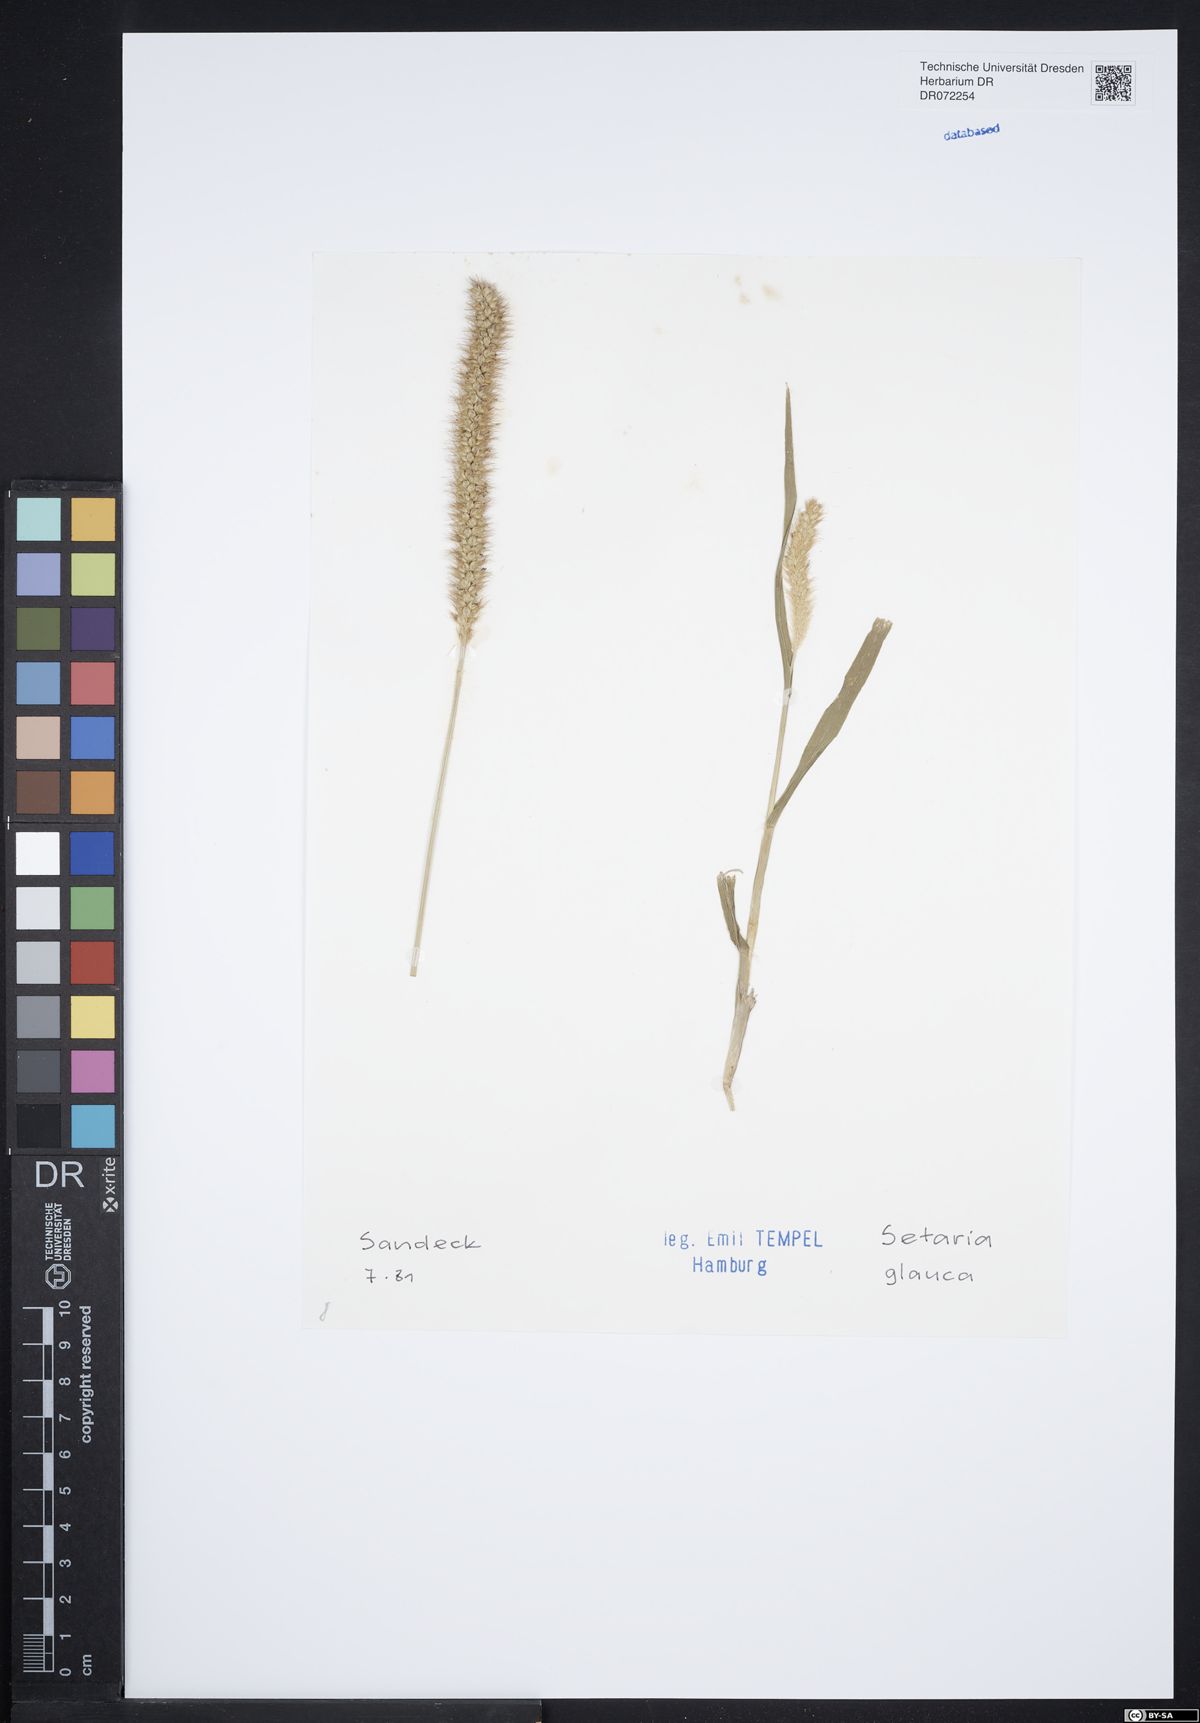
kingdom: Plantae
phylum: Tracheophyta
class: Liliopsida
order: Poales
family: Poaceae
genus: Cenchrus
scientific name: Cenchrus americanus
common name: Pearl millet
